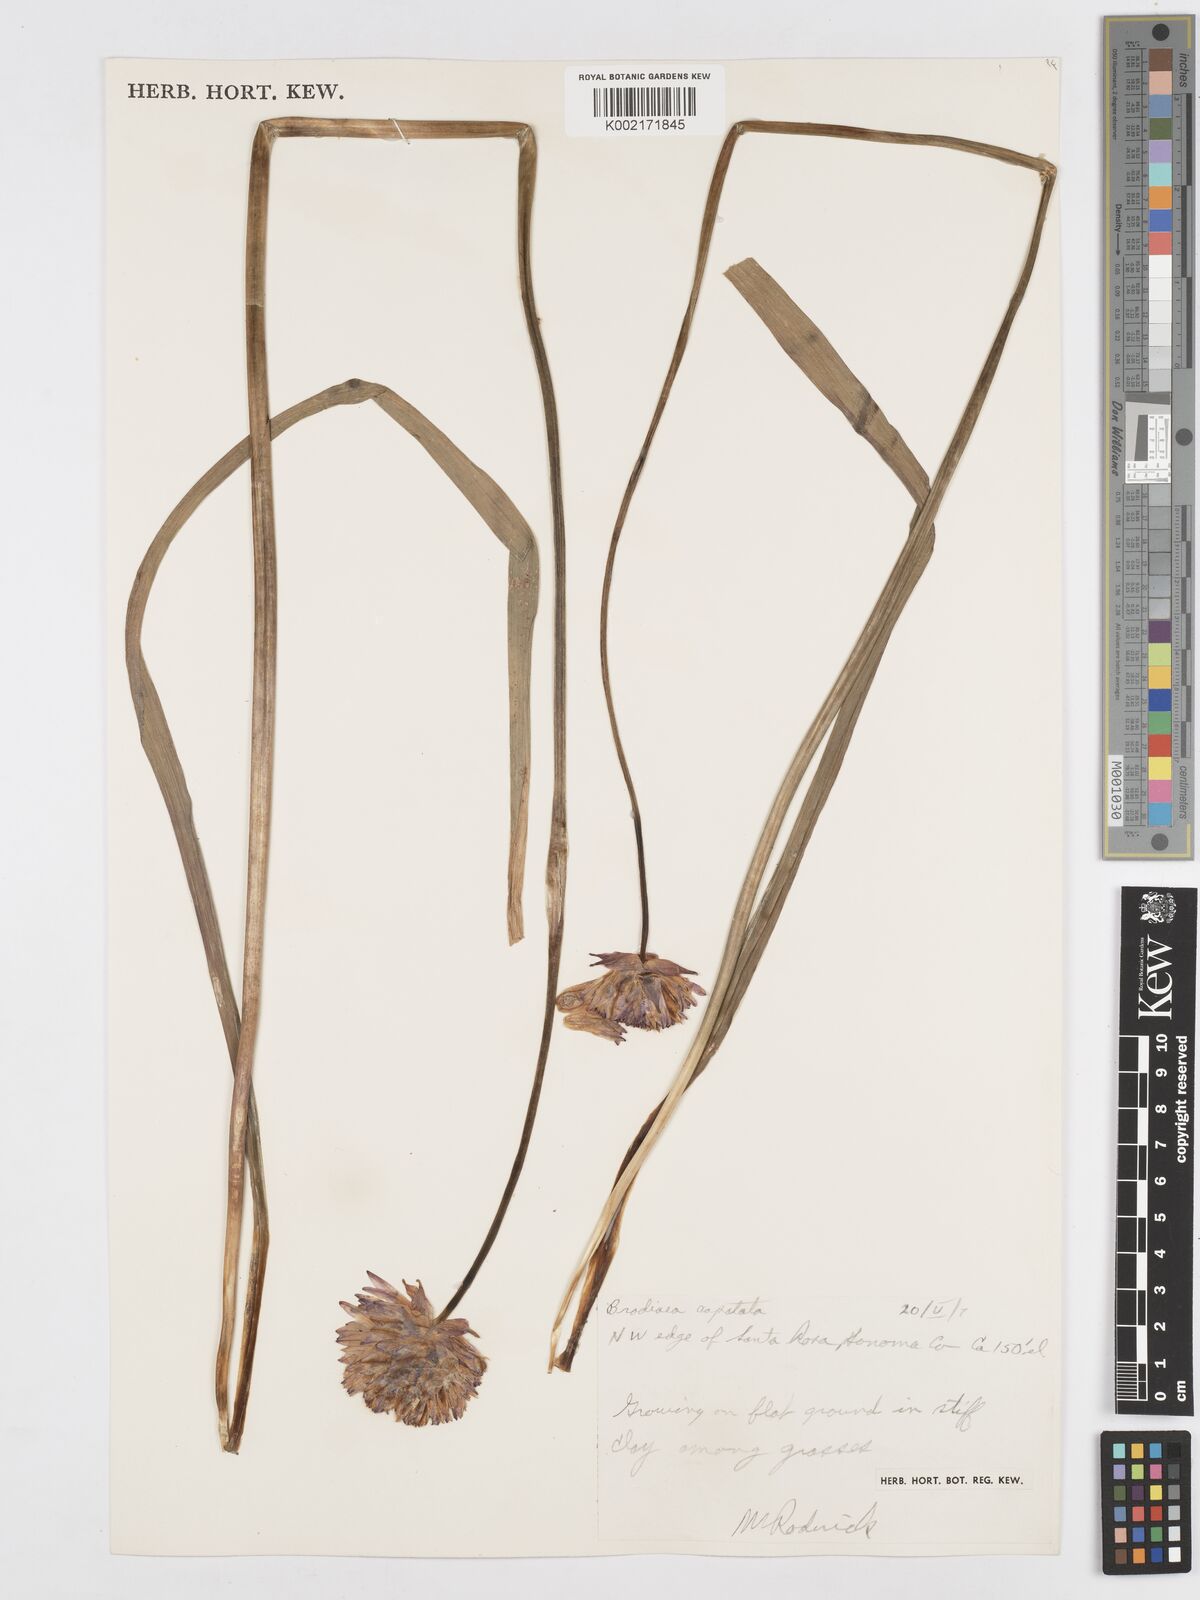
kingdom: Plantae
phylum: Tracheophyta
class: Liliopsida
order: Asparagales
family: Asparagaceae
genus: Dichelostemma
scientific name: Dichelostemma congestum
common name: Fork-tooth ookow
